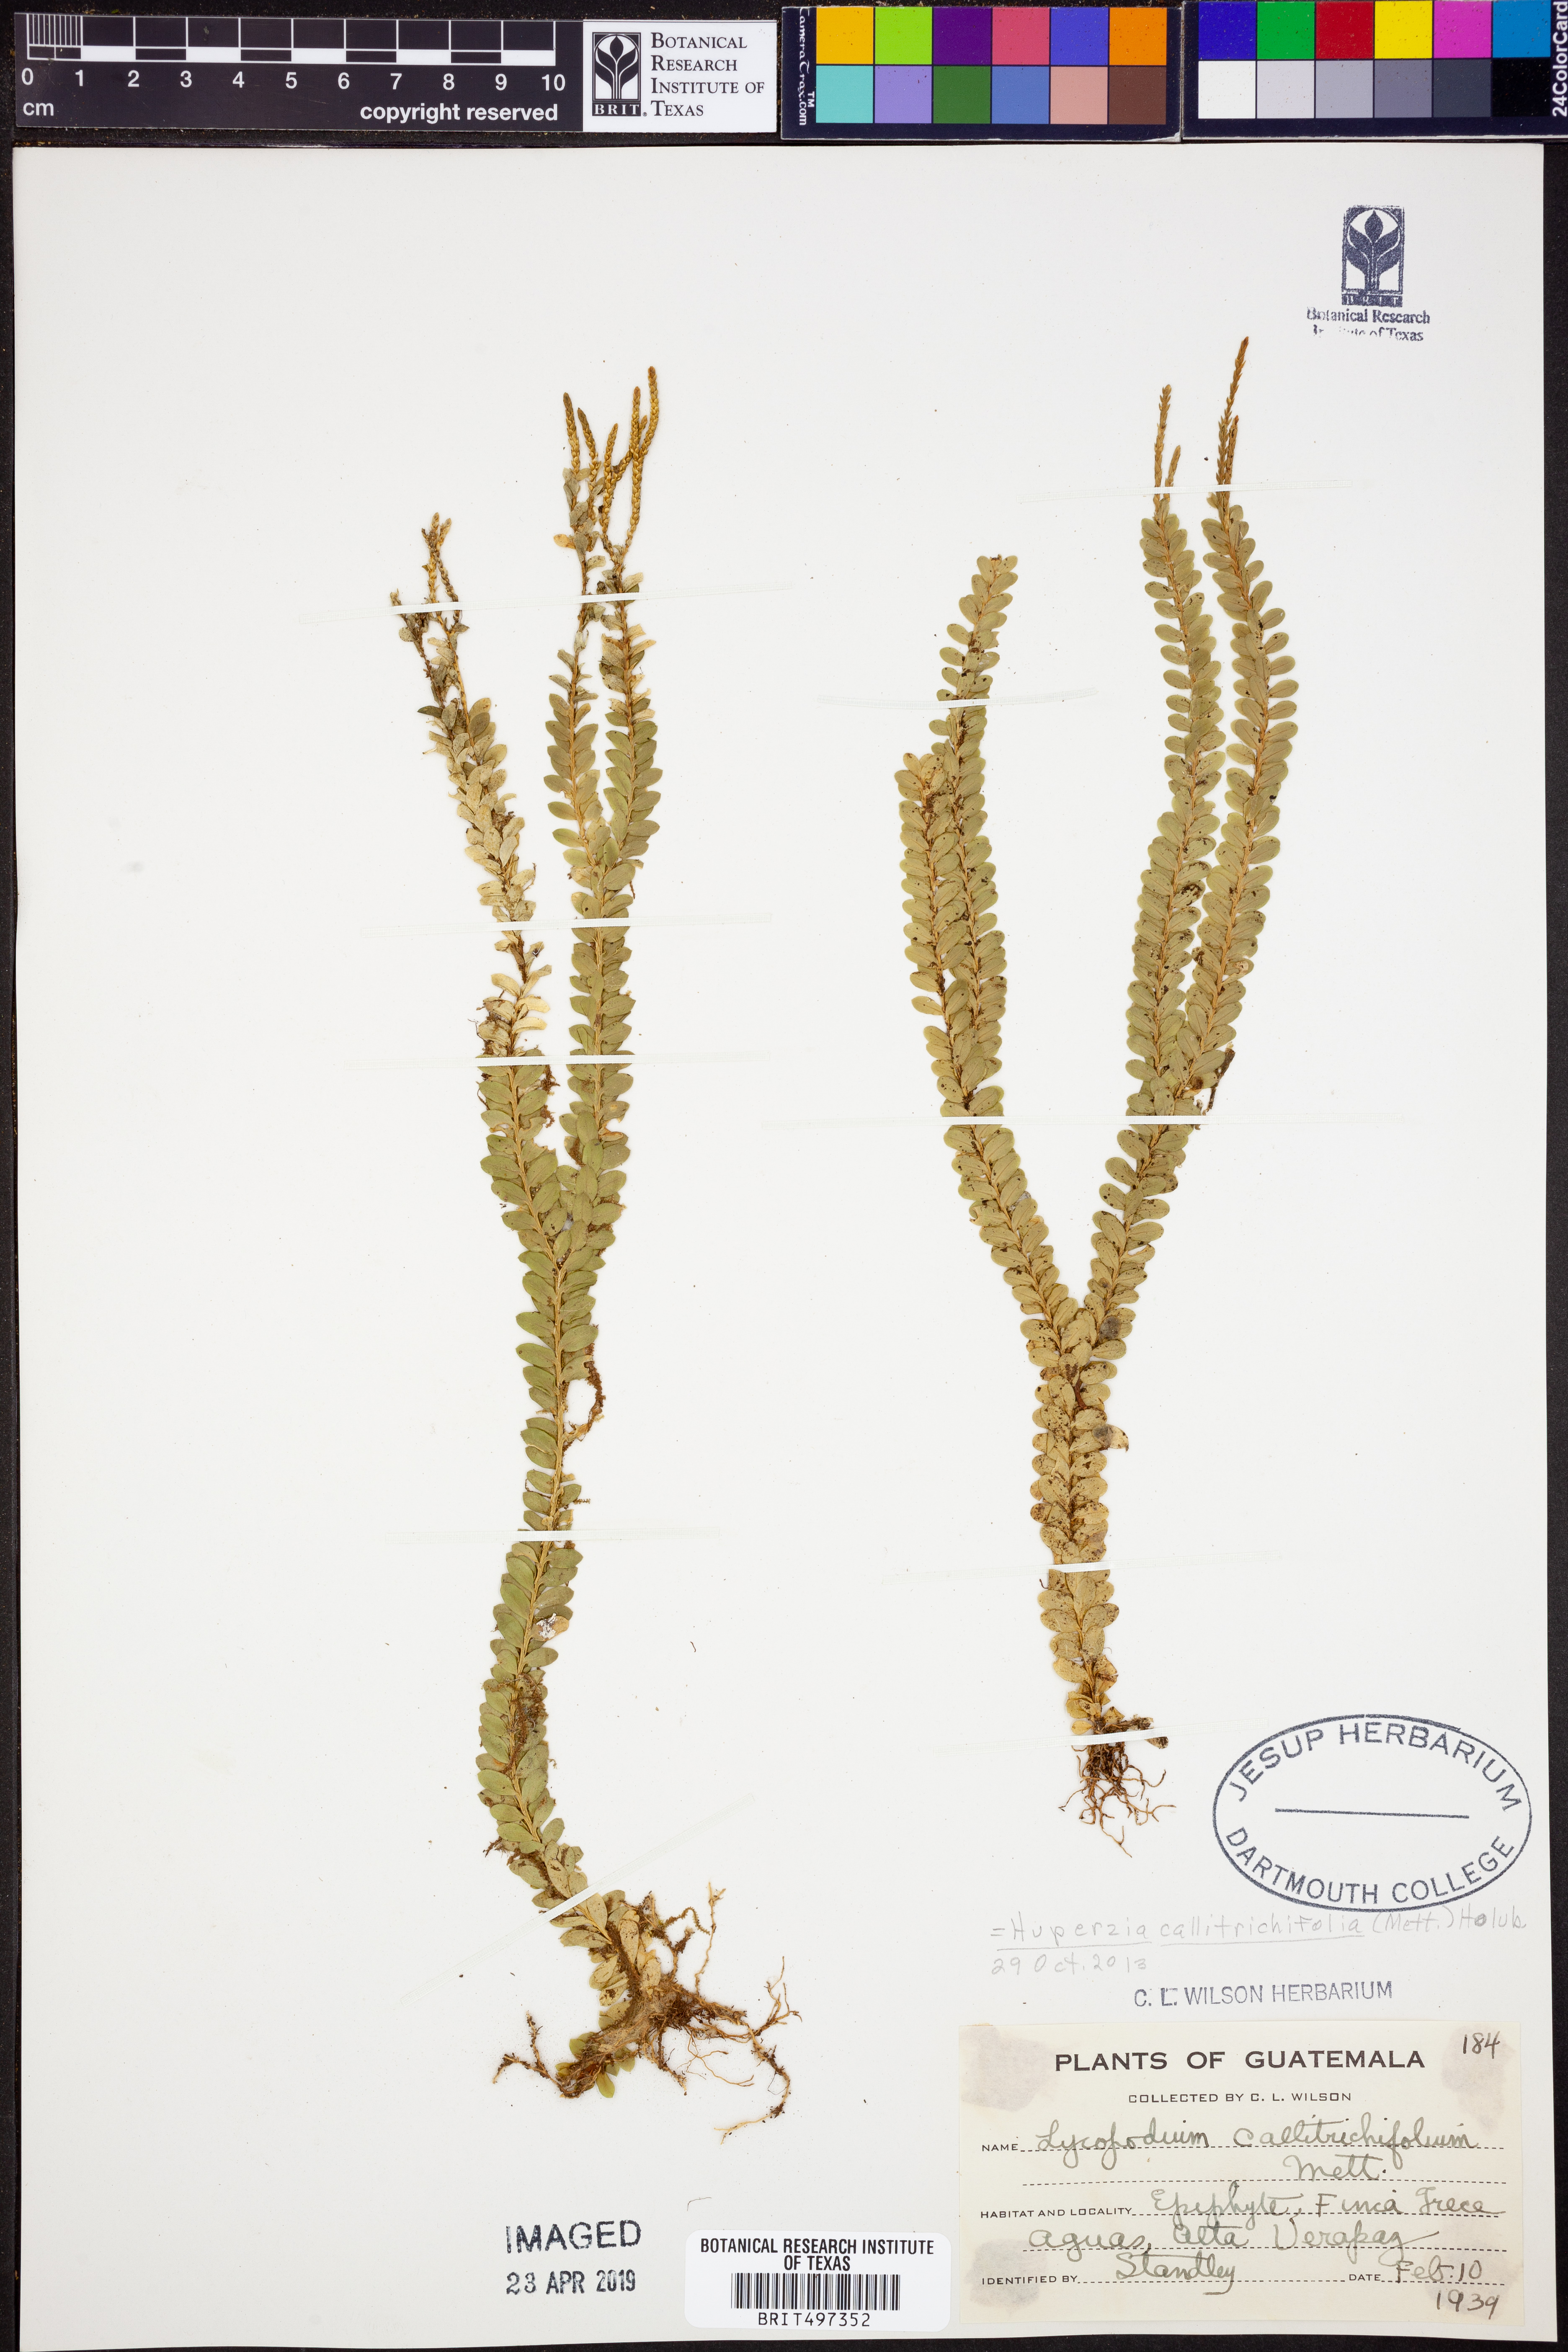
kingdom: Plantae
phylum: Tracheophyta
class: Lycopodiopsida
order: Lycopodiales
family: Lycopodiaceae
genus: Phlegmariurus
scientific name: Phlegmariurus callitrichifolius
